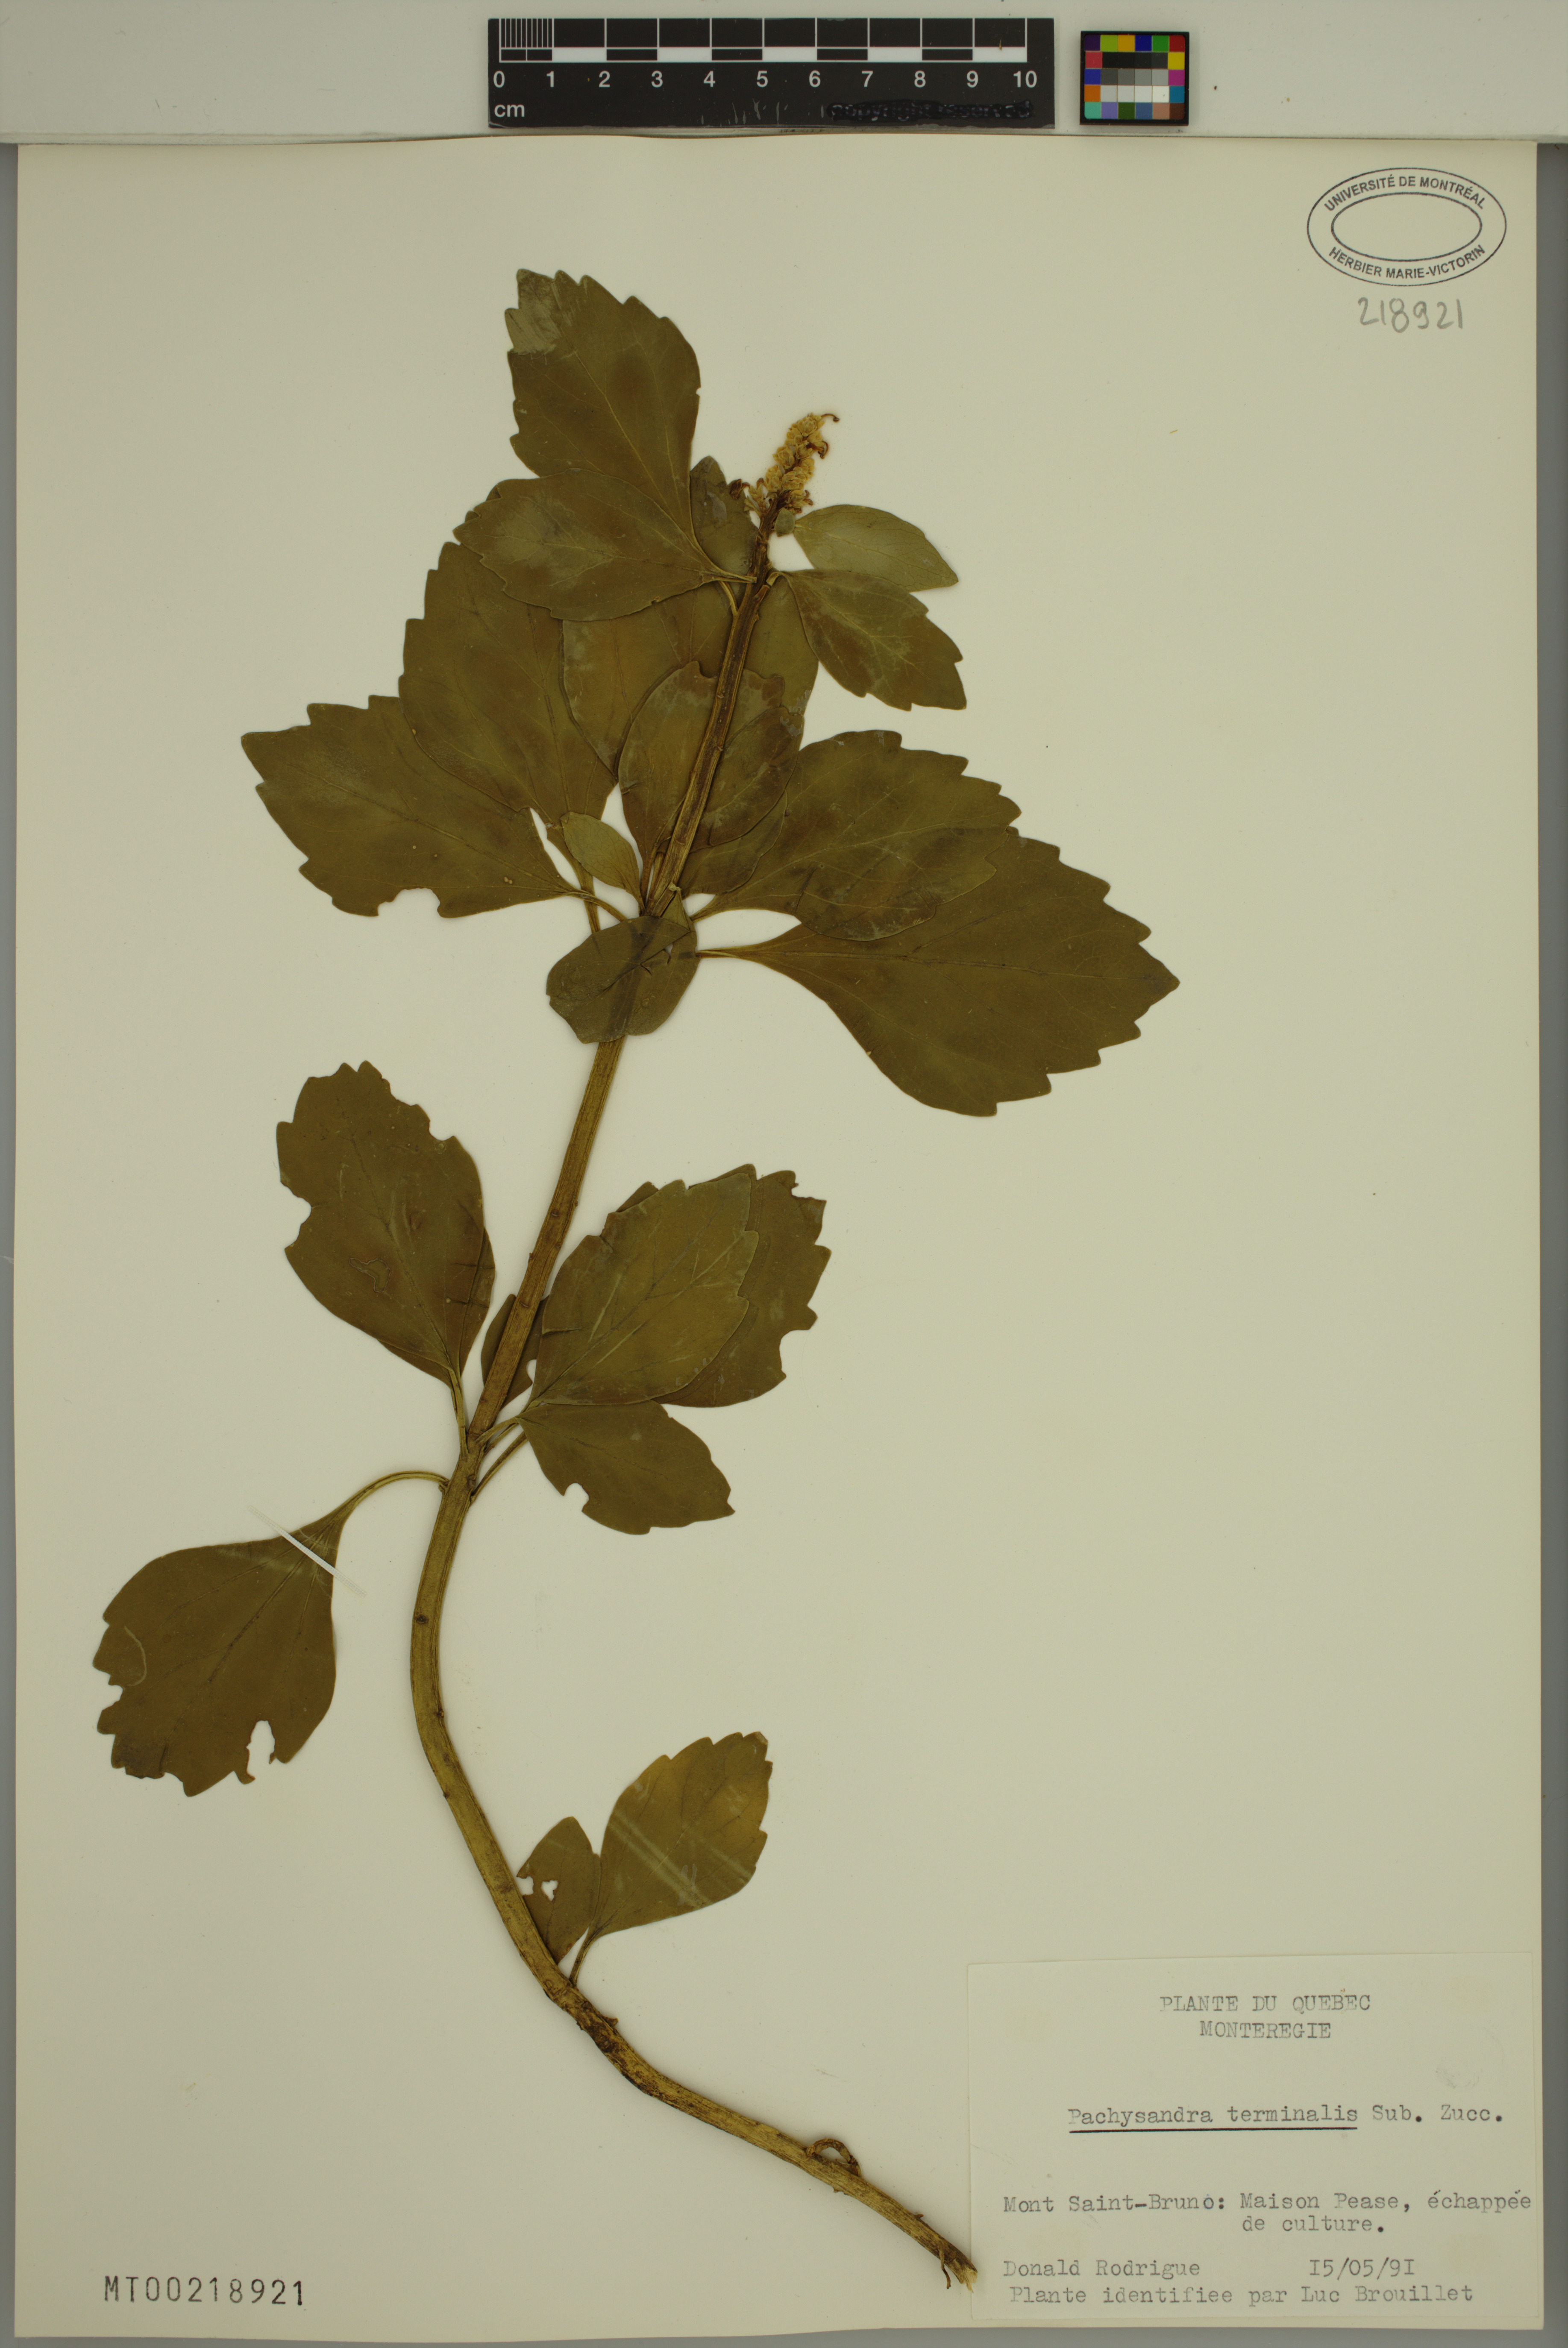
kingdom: Plantae
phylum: Tracheophyta
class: Magnoliopsida
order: Buxales
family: Buxaceae
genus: Pachysandra
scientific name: Pachysandra terminalis
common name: Japanese pachysandra
